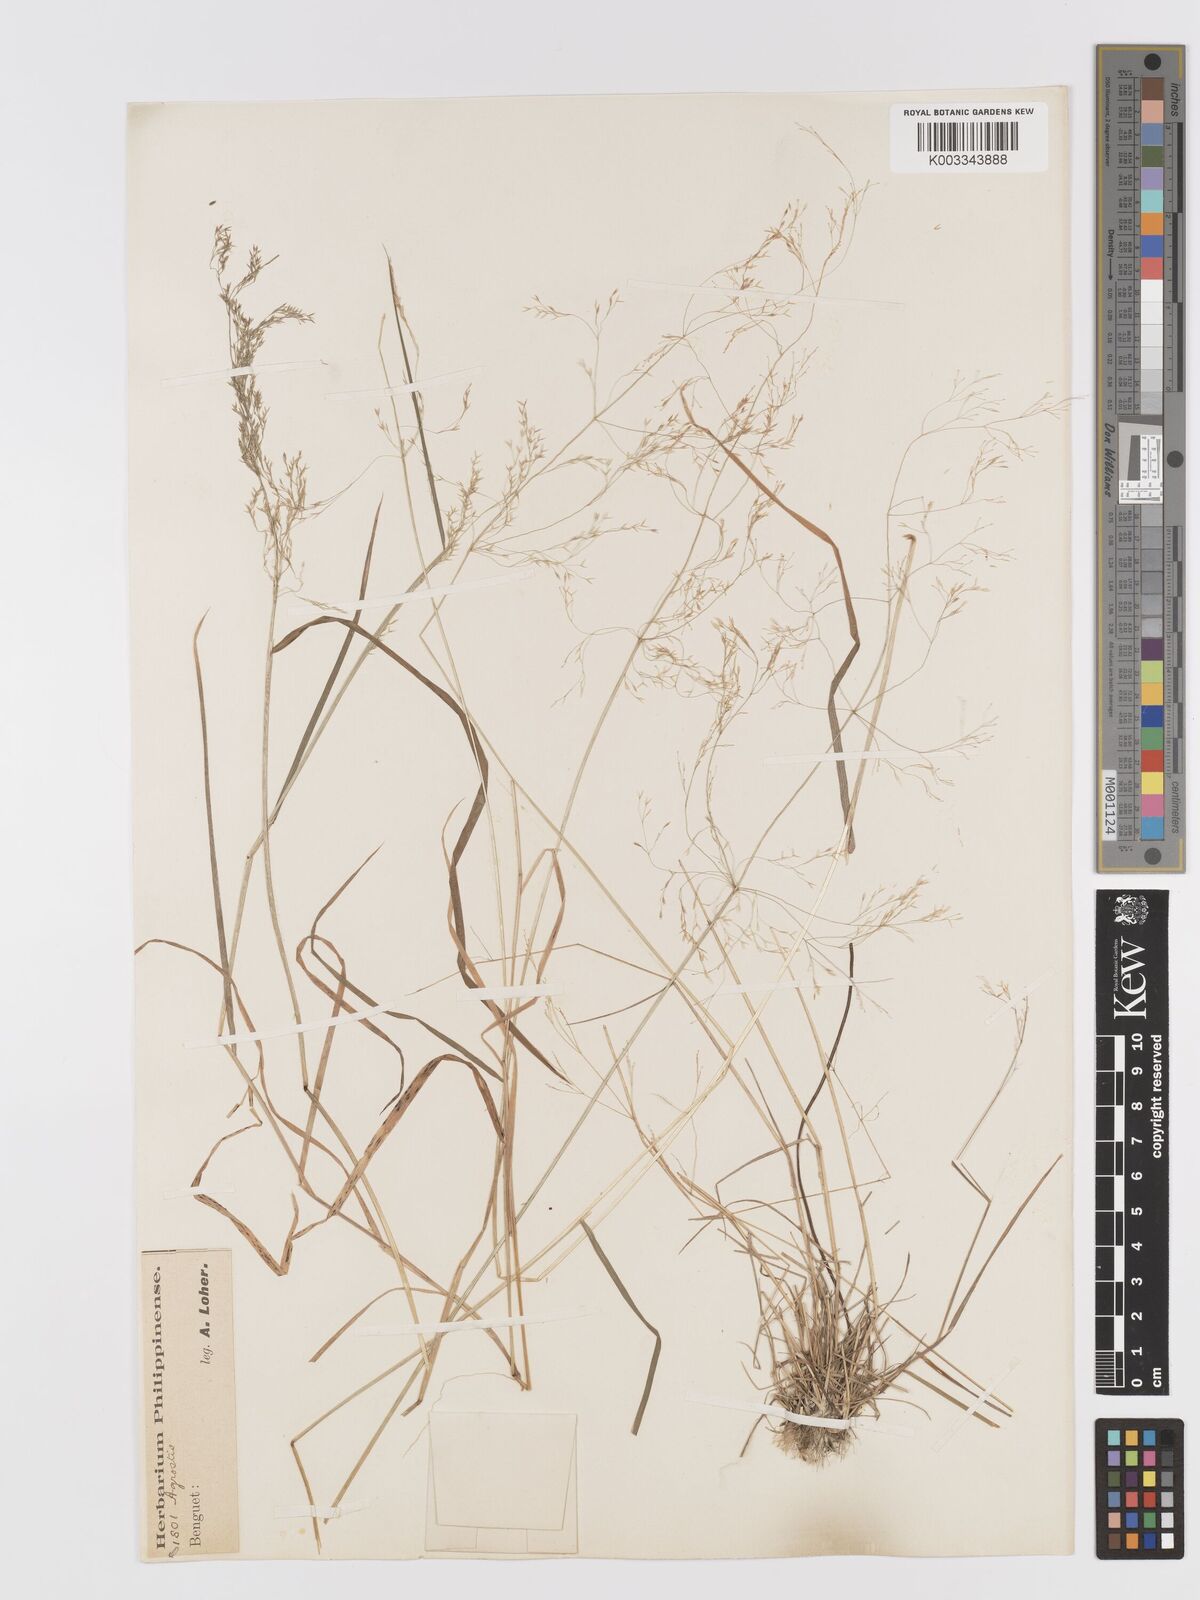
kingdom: Plantae
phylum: Tracheophyta
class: Liliopsida
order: Poales
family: Poaceae
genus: Agrostis
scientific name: Agrostis stolonifera
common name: Creeping bentgrass
